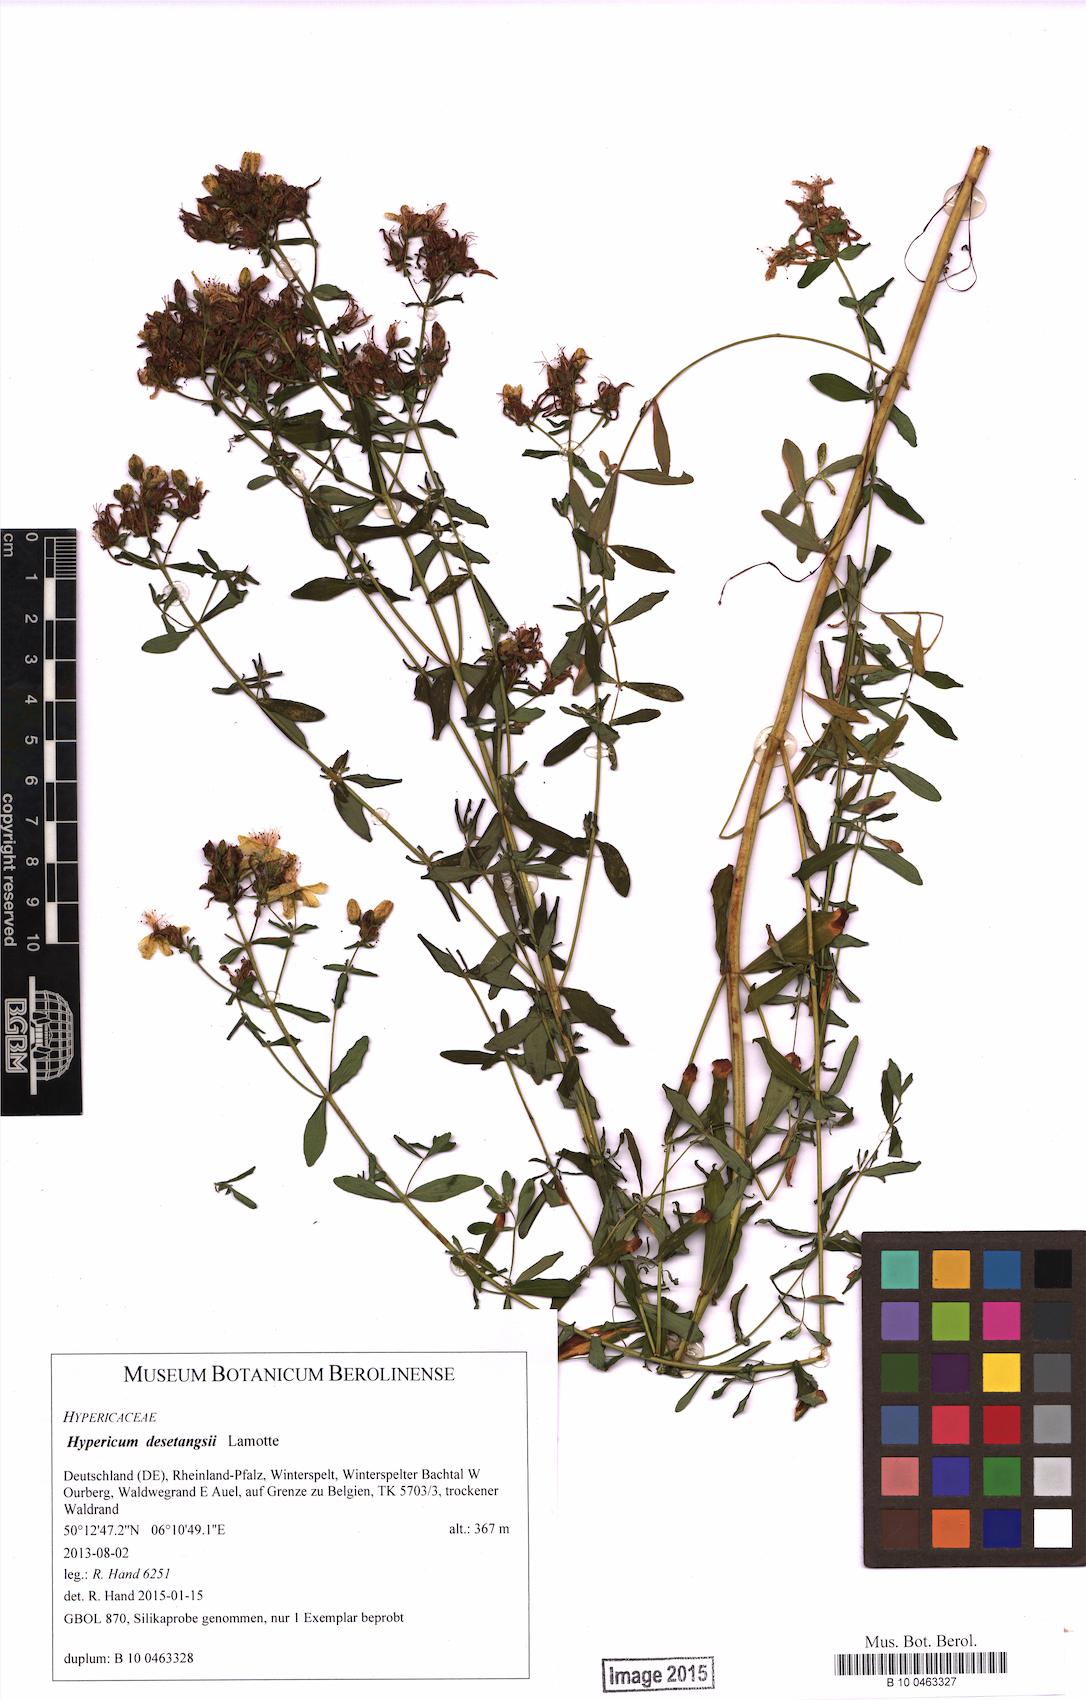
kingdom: Plantae
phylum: Tracheophyta
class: Magnoliopsida
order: Malpighiales
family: Hypericaceae
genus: Hypericum
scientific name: Hypericum desetangsii
